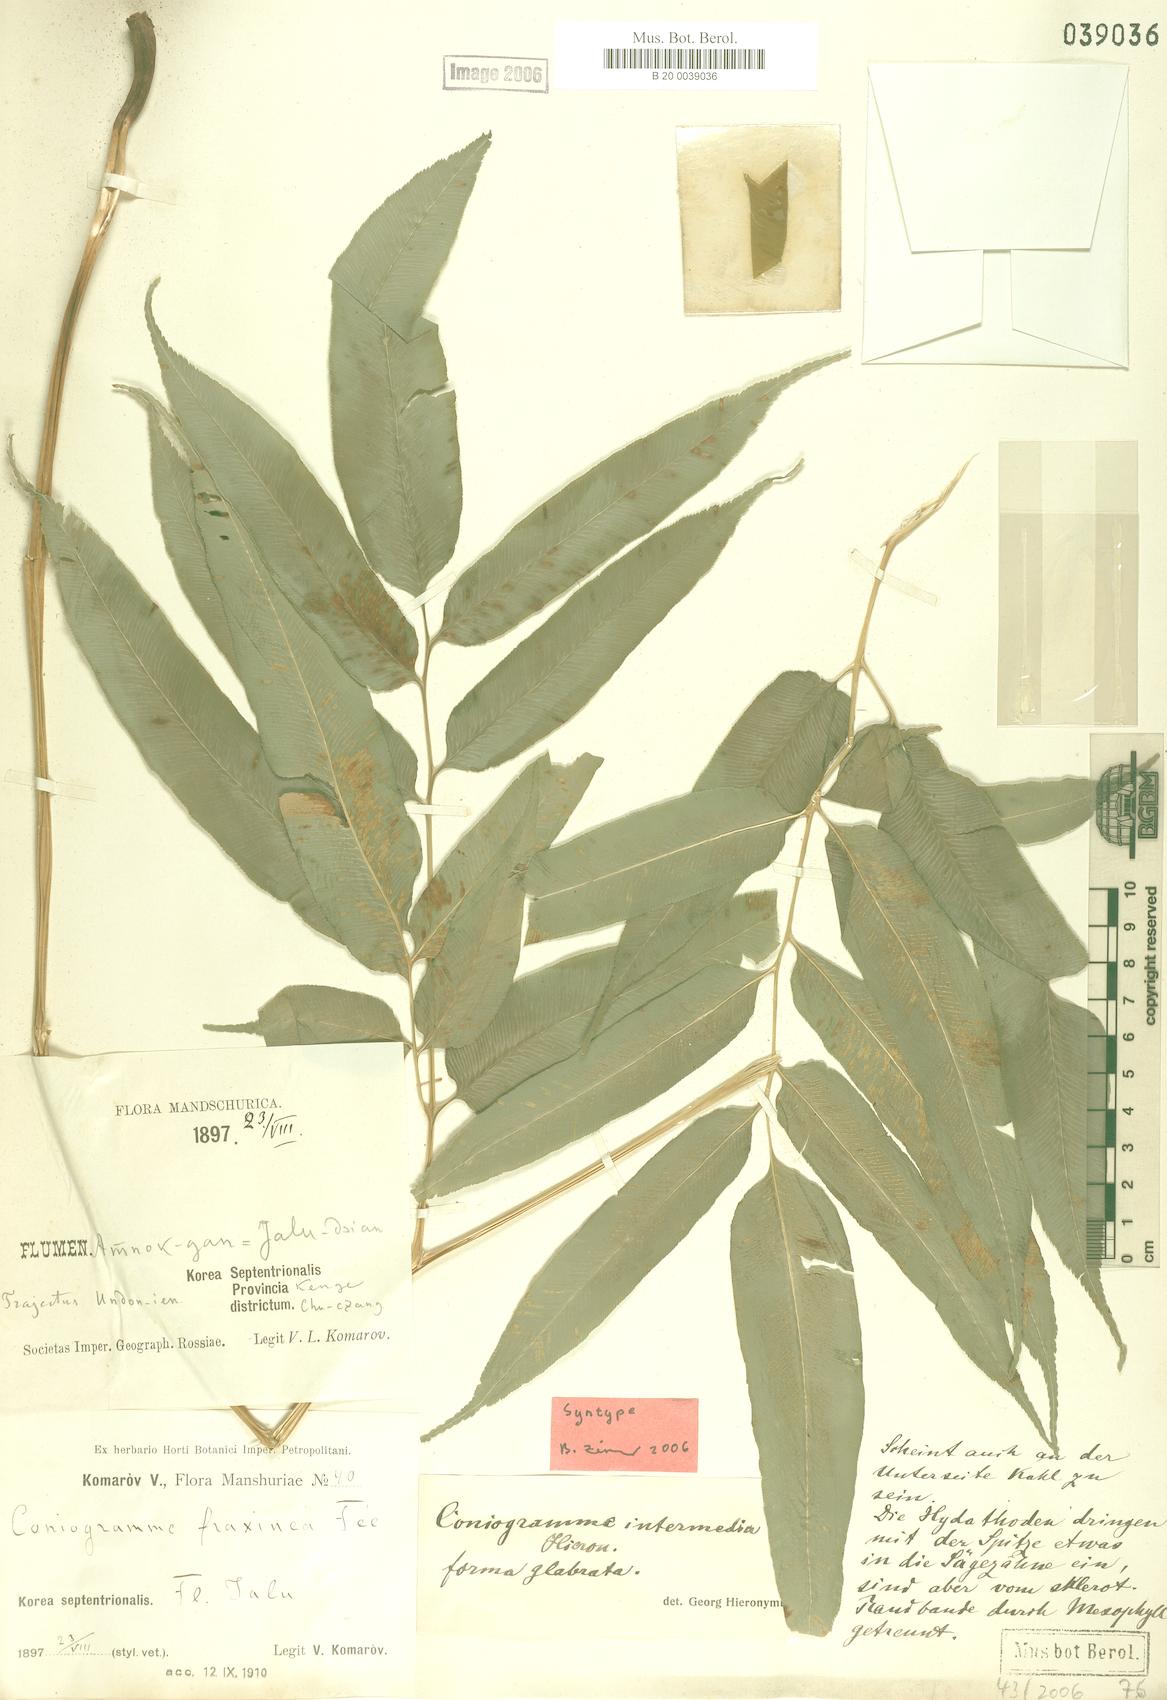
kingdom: Plantae
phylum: Tracheophyta
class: Polypodiopsida
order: Polypodiales
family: Pteridaceae
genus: Coniogramme
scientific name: Coniogramme intermedia
